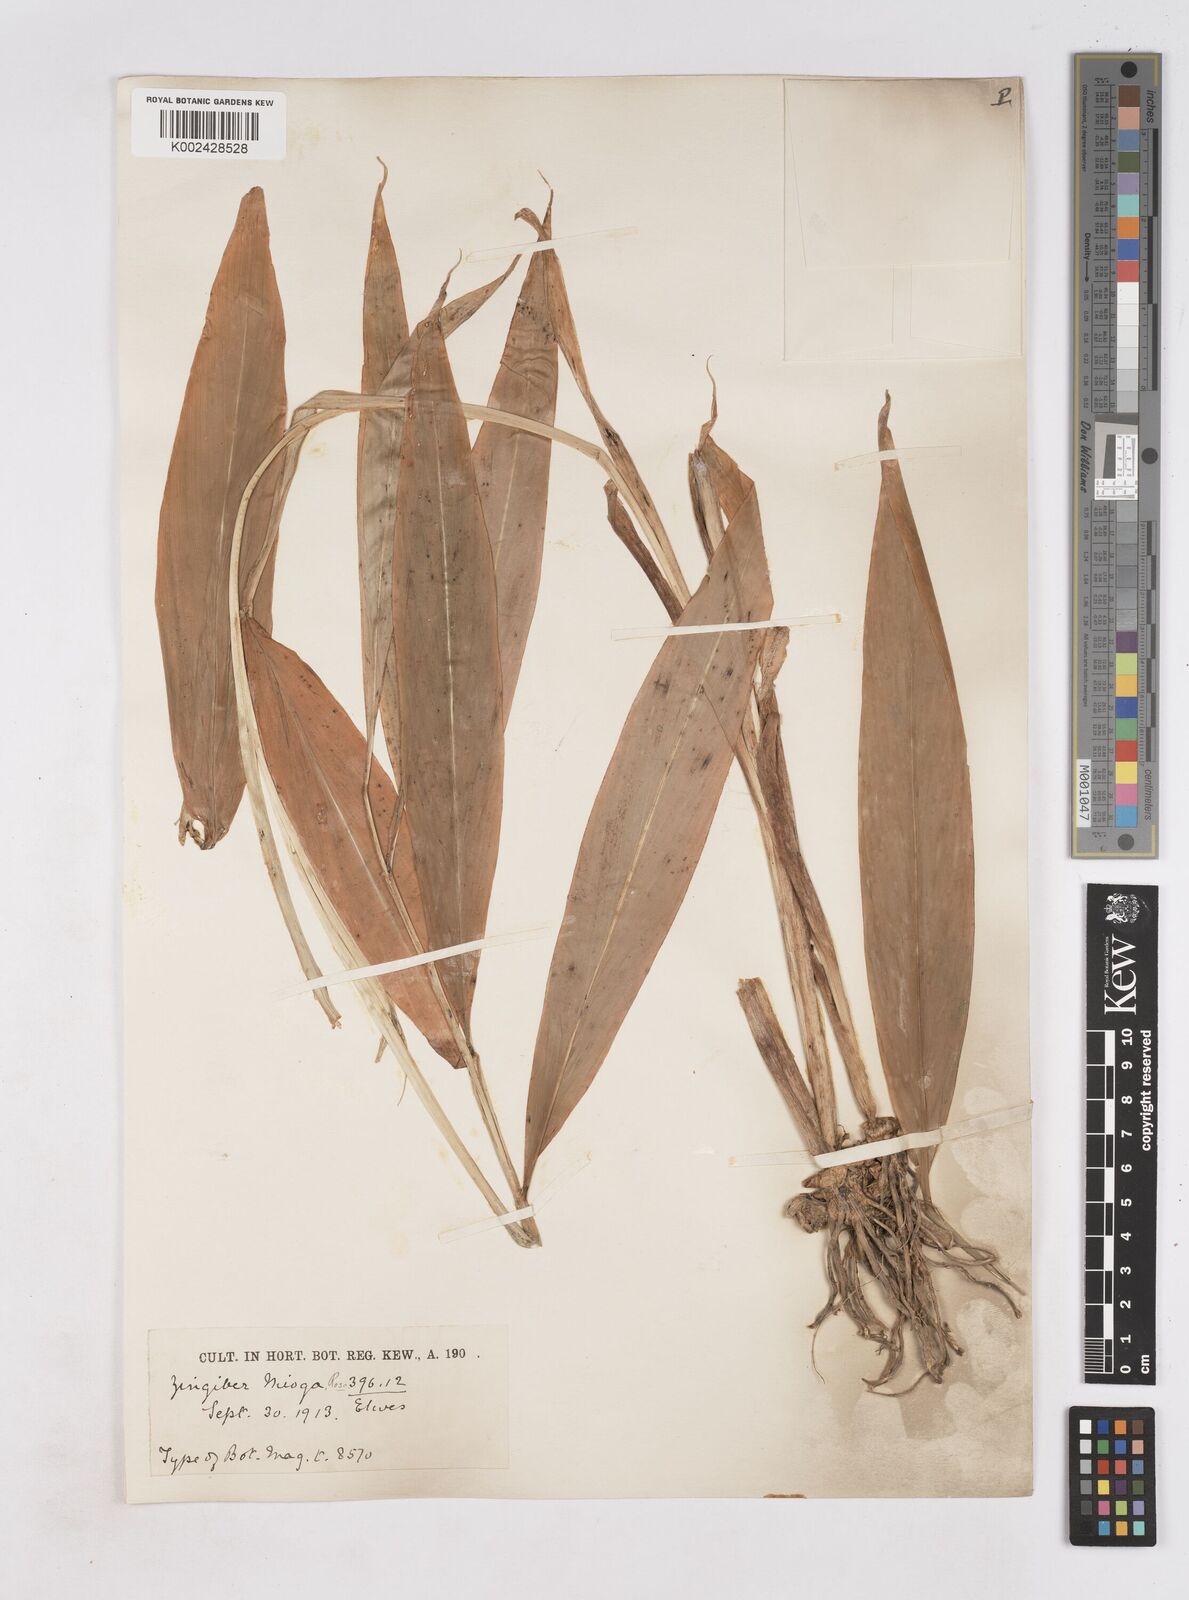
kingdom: Plantae
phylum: Tracheophyta
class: Liliopsida
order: Zingiberales
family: Zingiberaceae
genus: Zingiber
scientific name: Zingiber mioga
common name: Japanese ginger
